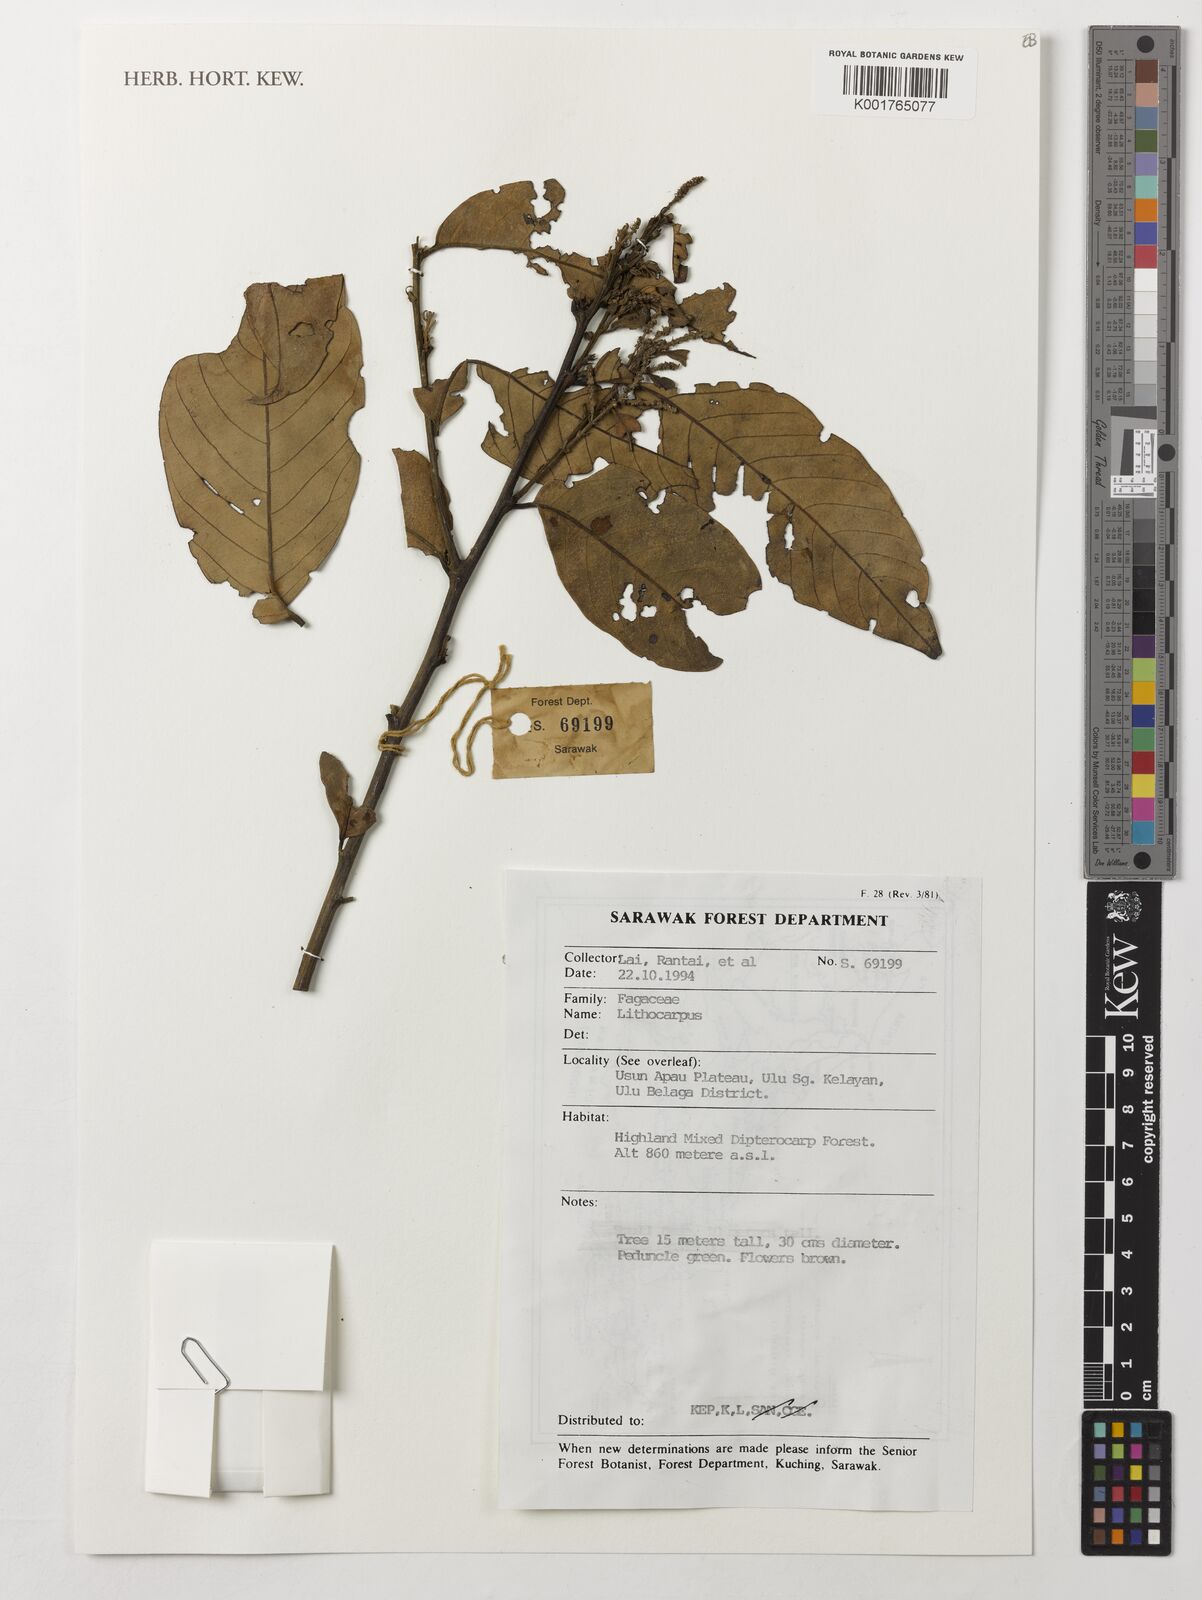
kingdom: Plantae
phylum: Tracheophyta
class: Magnoliopsida
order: Fagales
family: Fagaceae
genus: Lithocarpus
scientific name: Lithocarpus
